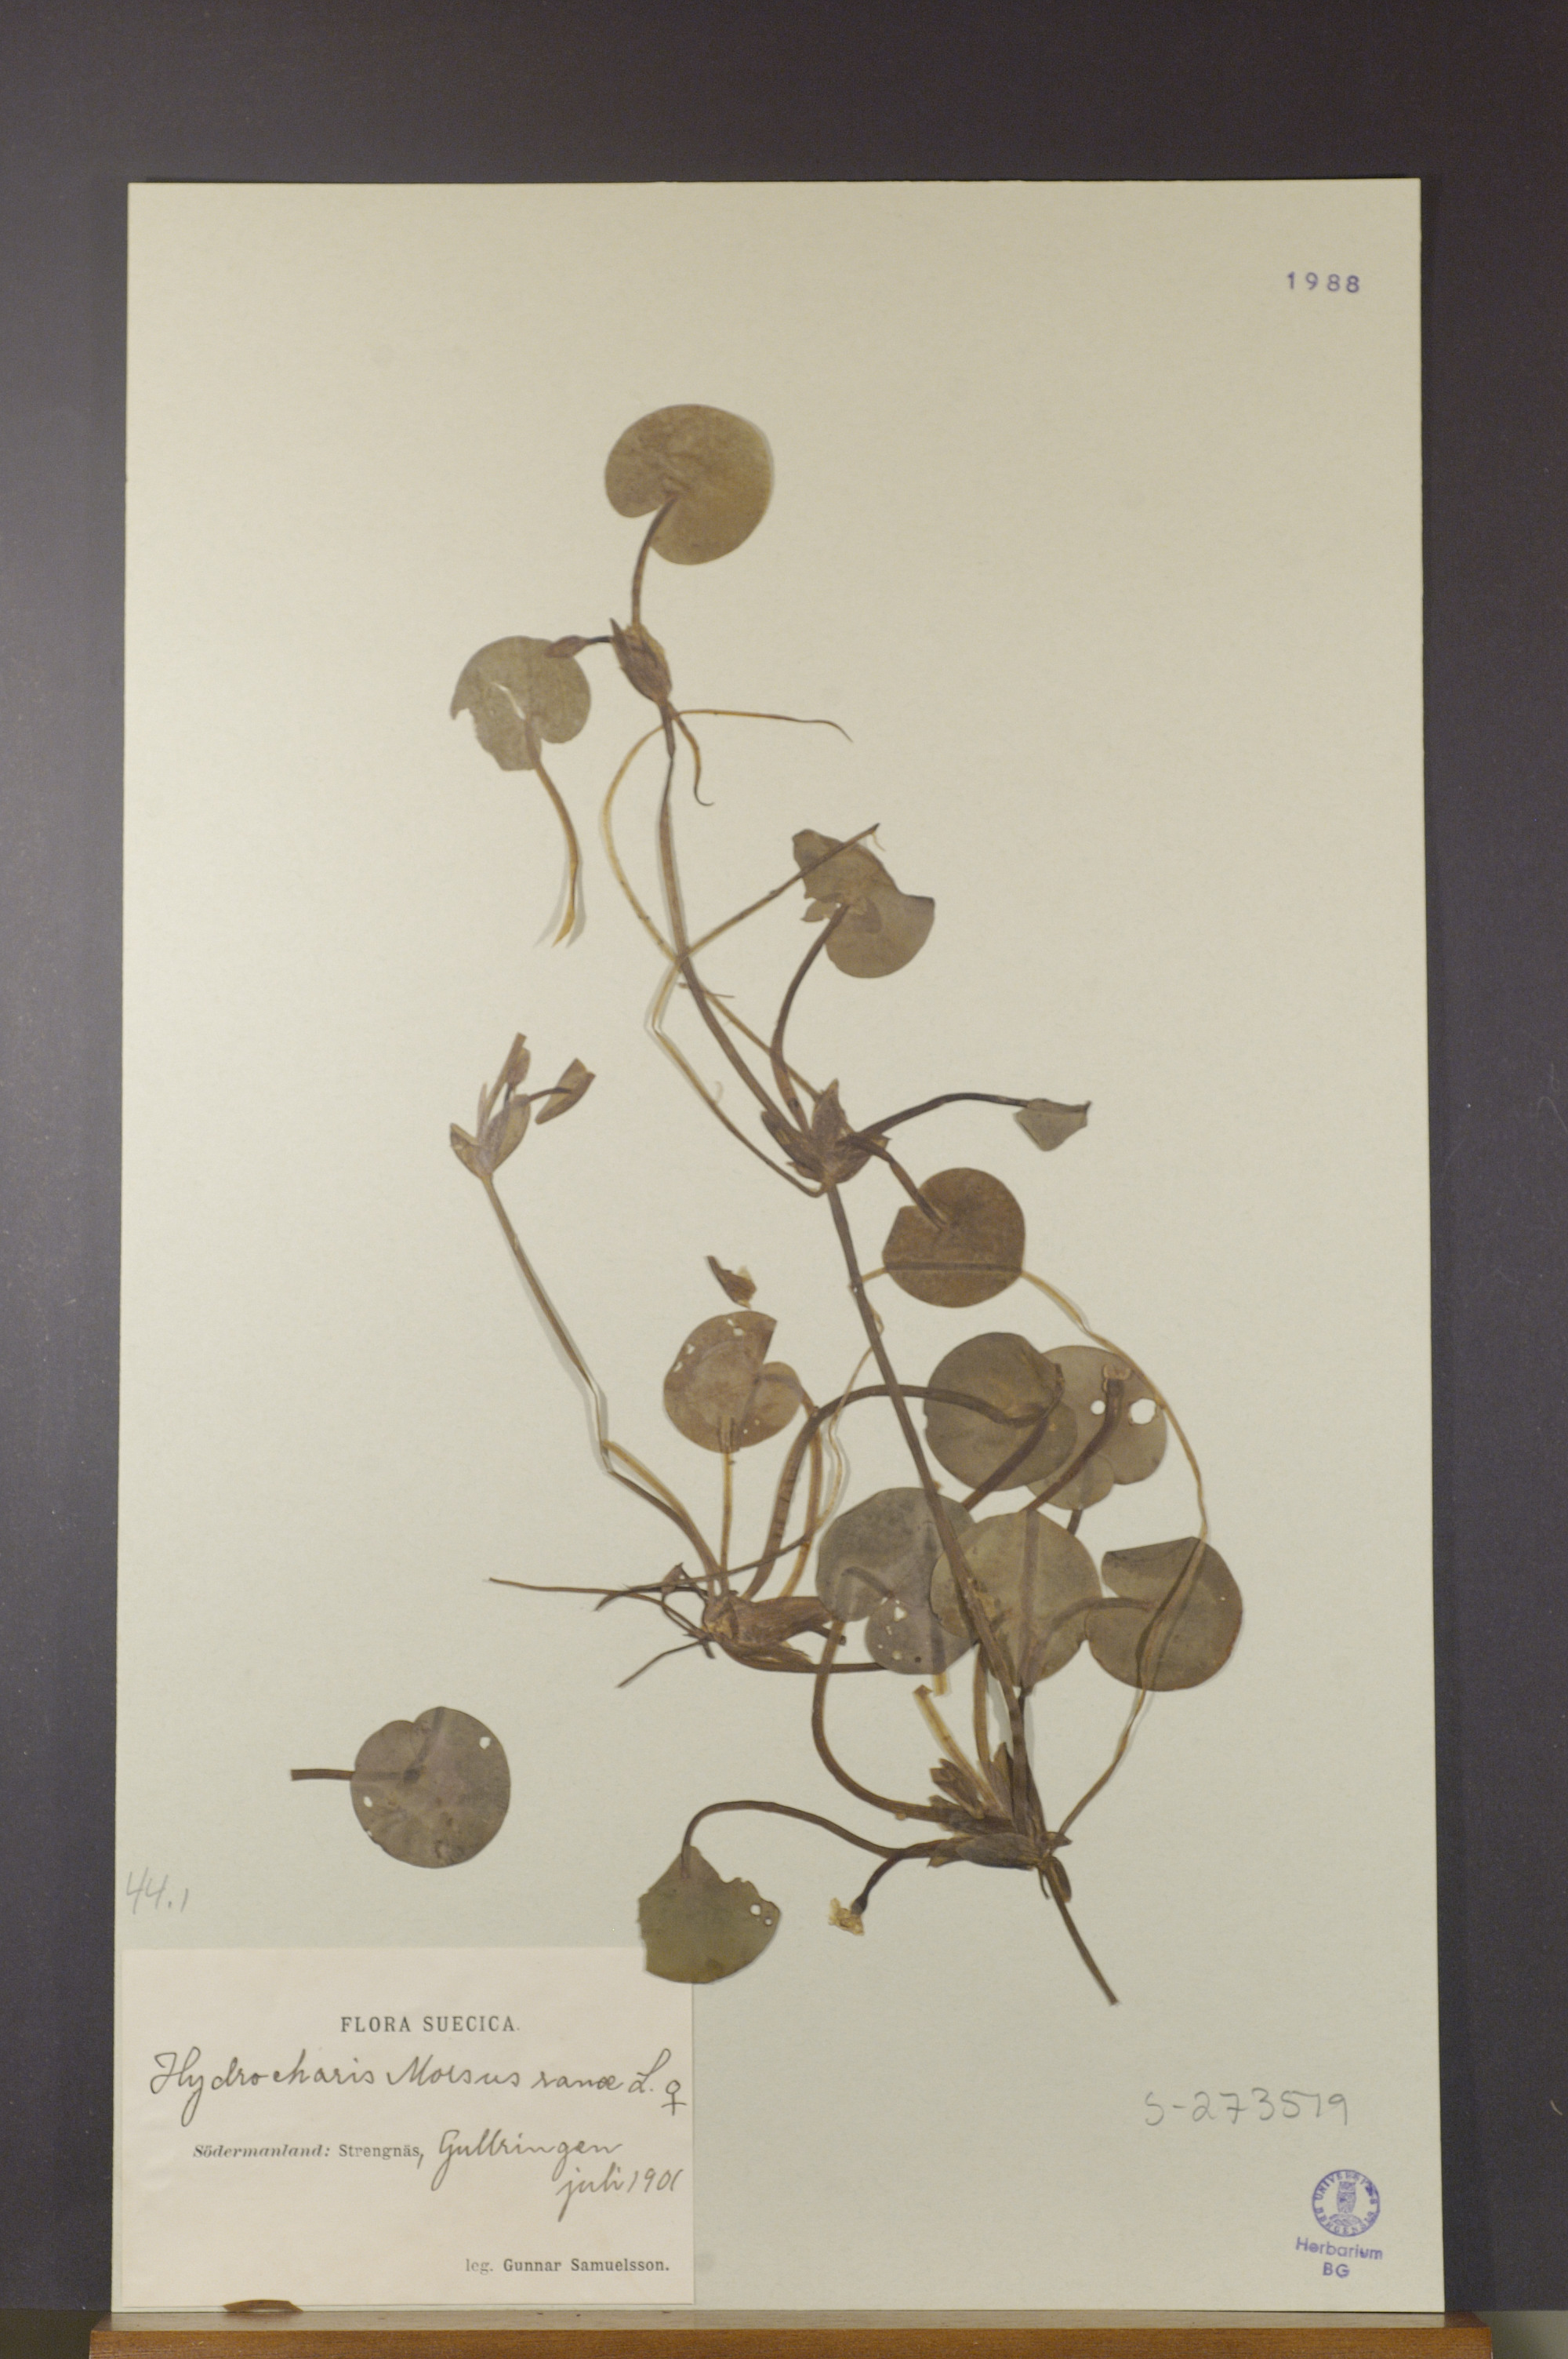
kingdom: Plantae
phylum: Tracheophyta
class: Liliopsida
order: Alismatales
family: Hydrocharitaceae
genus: Hydrocharis
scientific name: Hydrocharis morsus-ranae
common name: Frogbit
